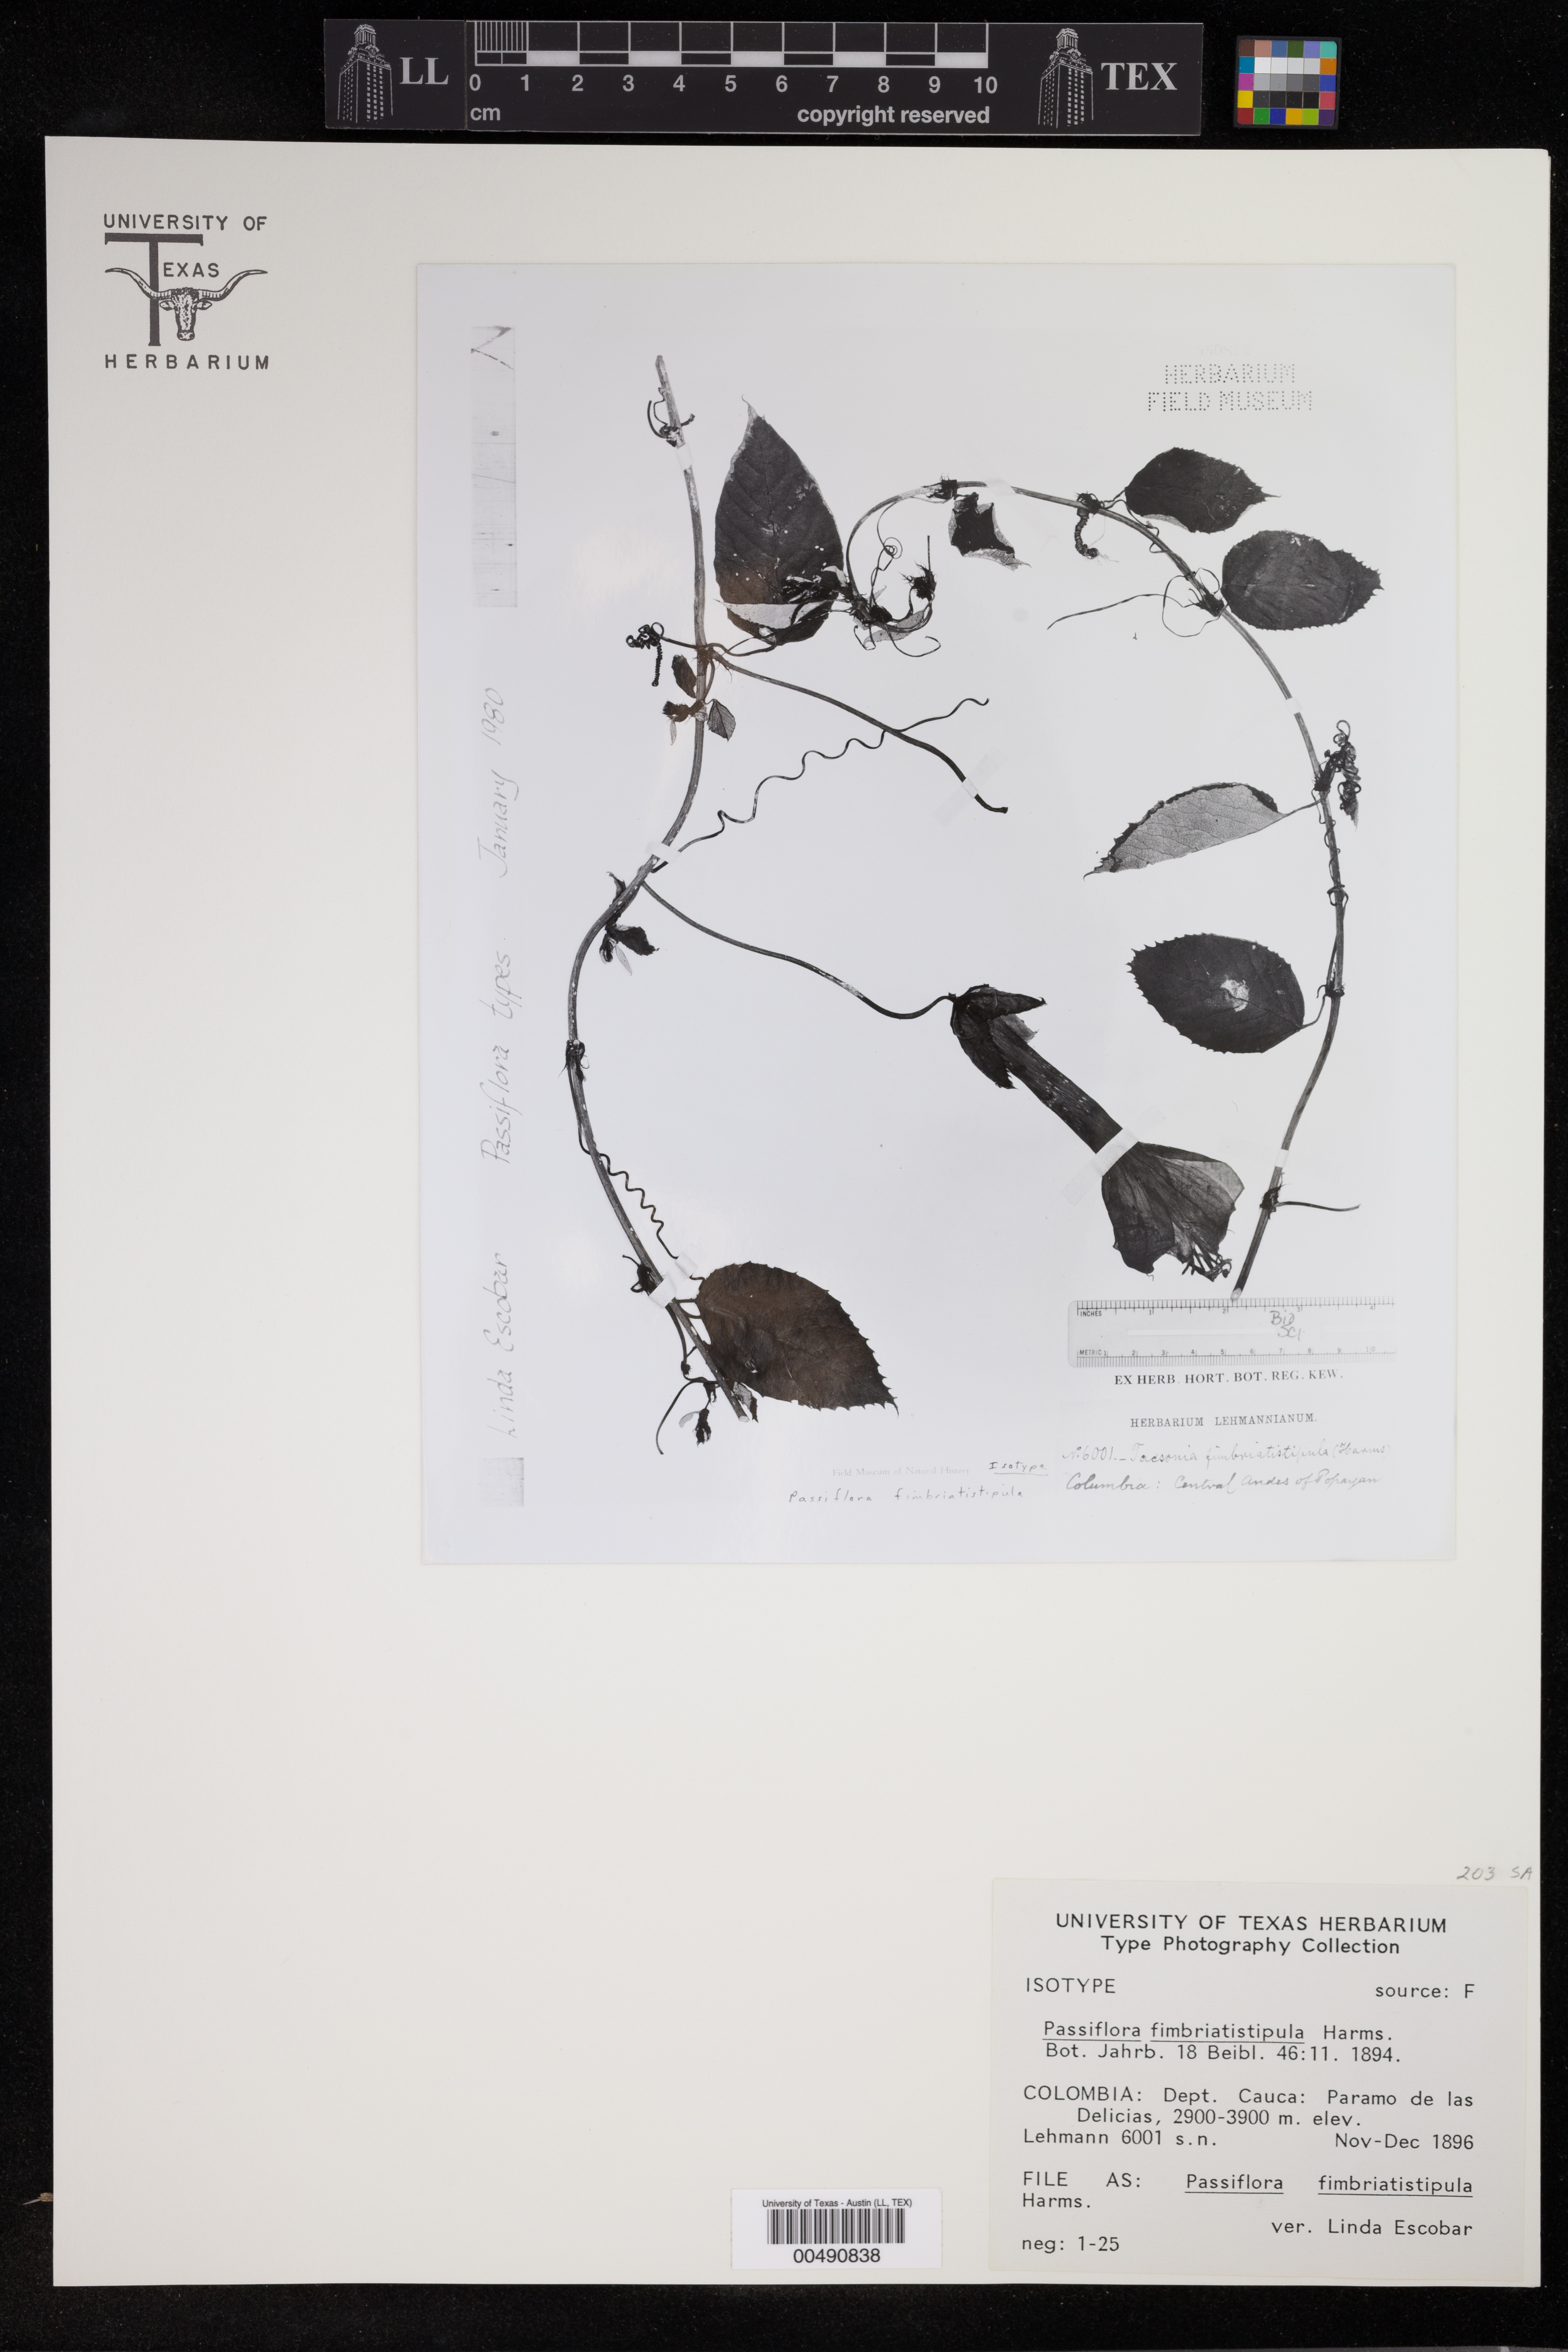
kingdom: Plantae
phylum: Tracheophyta
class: Magnoliopsida
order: Malpighiales
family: Passifloraceae
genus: Passiflora
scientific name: Passiflora fimbriatistipula
